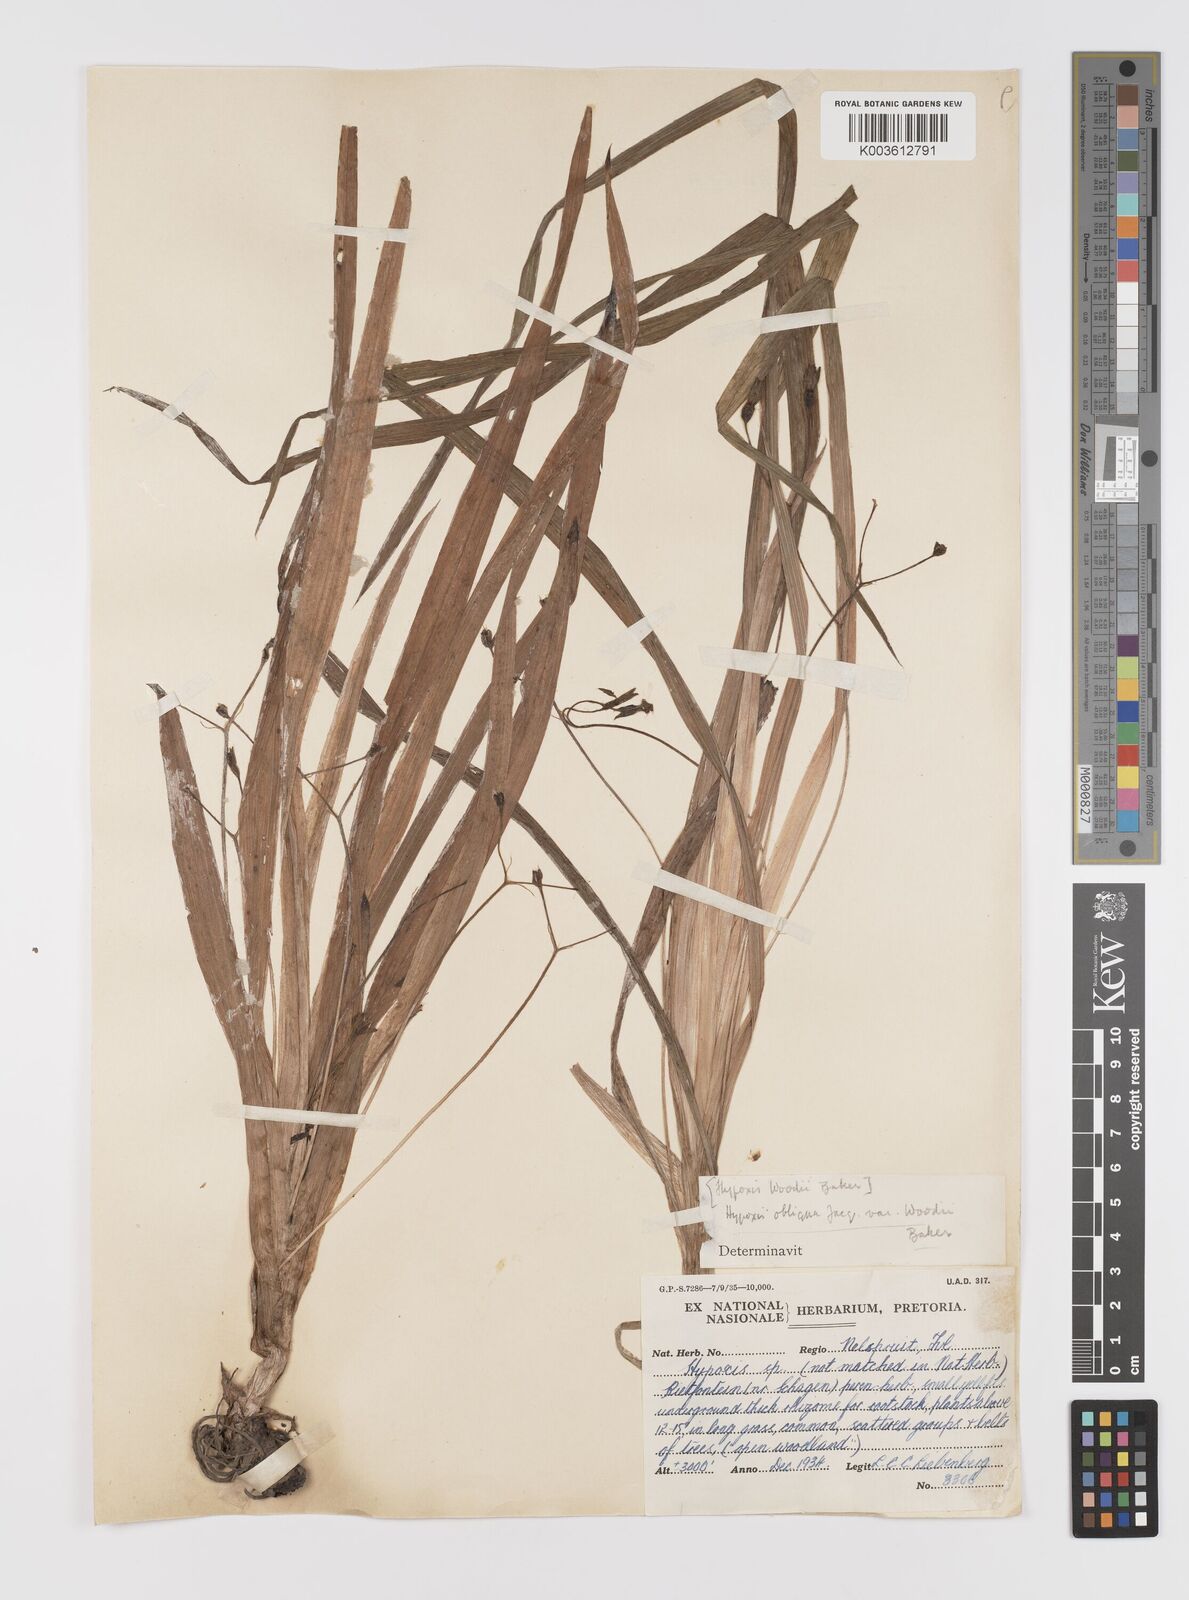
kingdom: Plantae
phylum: Tracheophyta
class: Liliopsida
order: Asparagales
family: Hypoxidaceae
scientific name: Hypoxidaceae
